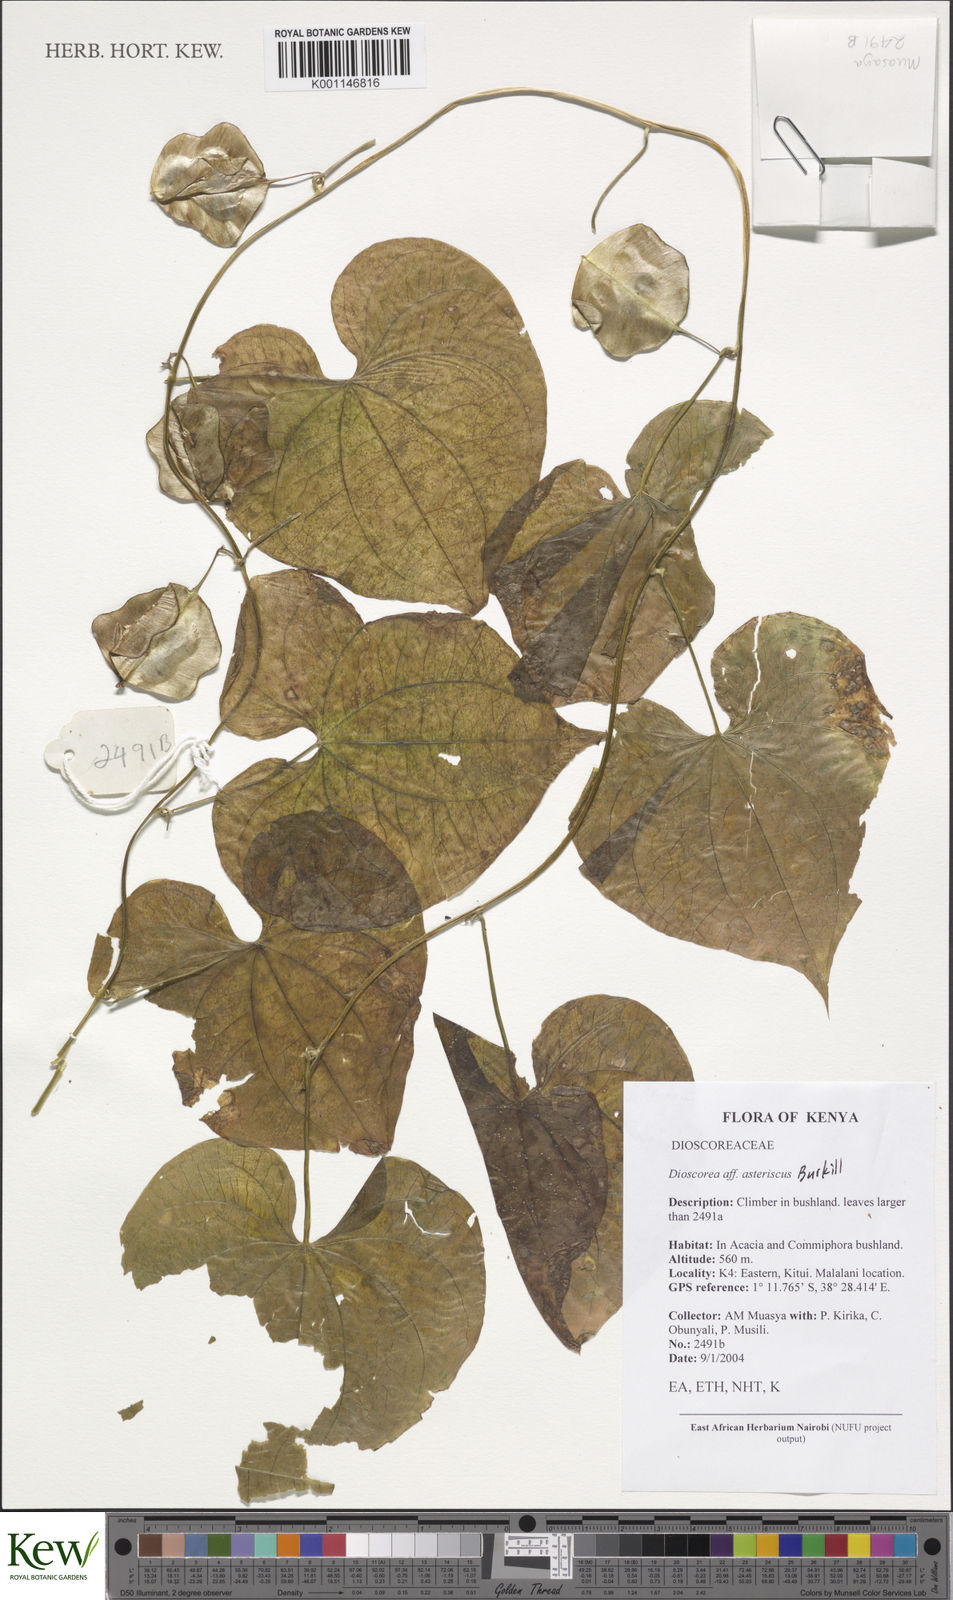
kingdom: Plantae
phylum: Tracheophyta
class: Liliopsida
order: Dioscoreales
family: Dioscoreaceae
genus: Dioscorea
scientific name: Dioscorea asteriscus
